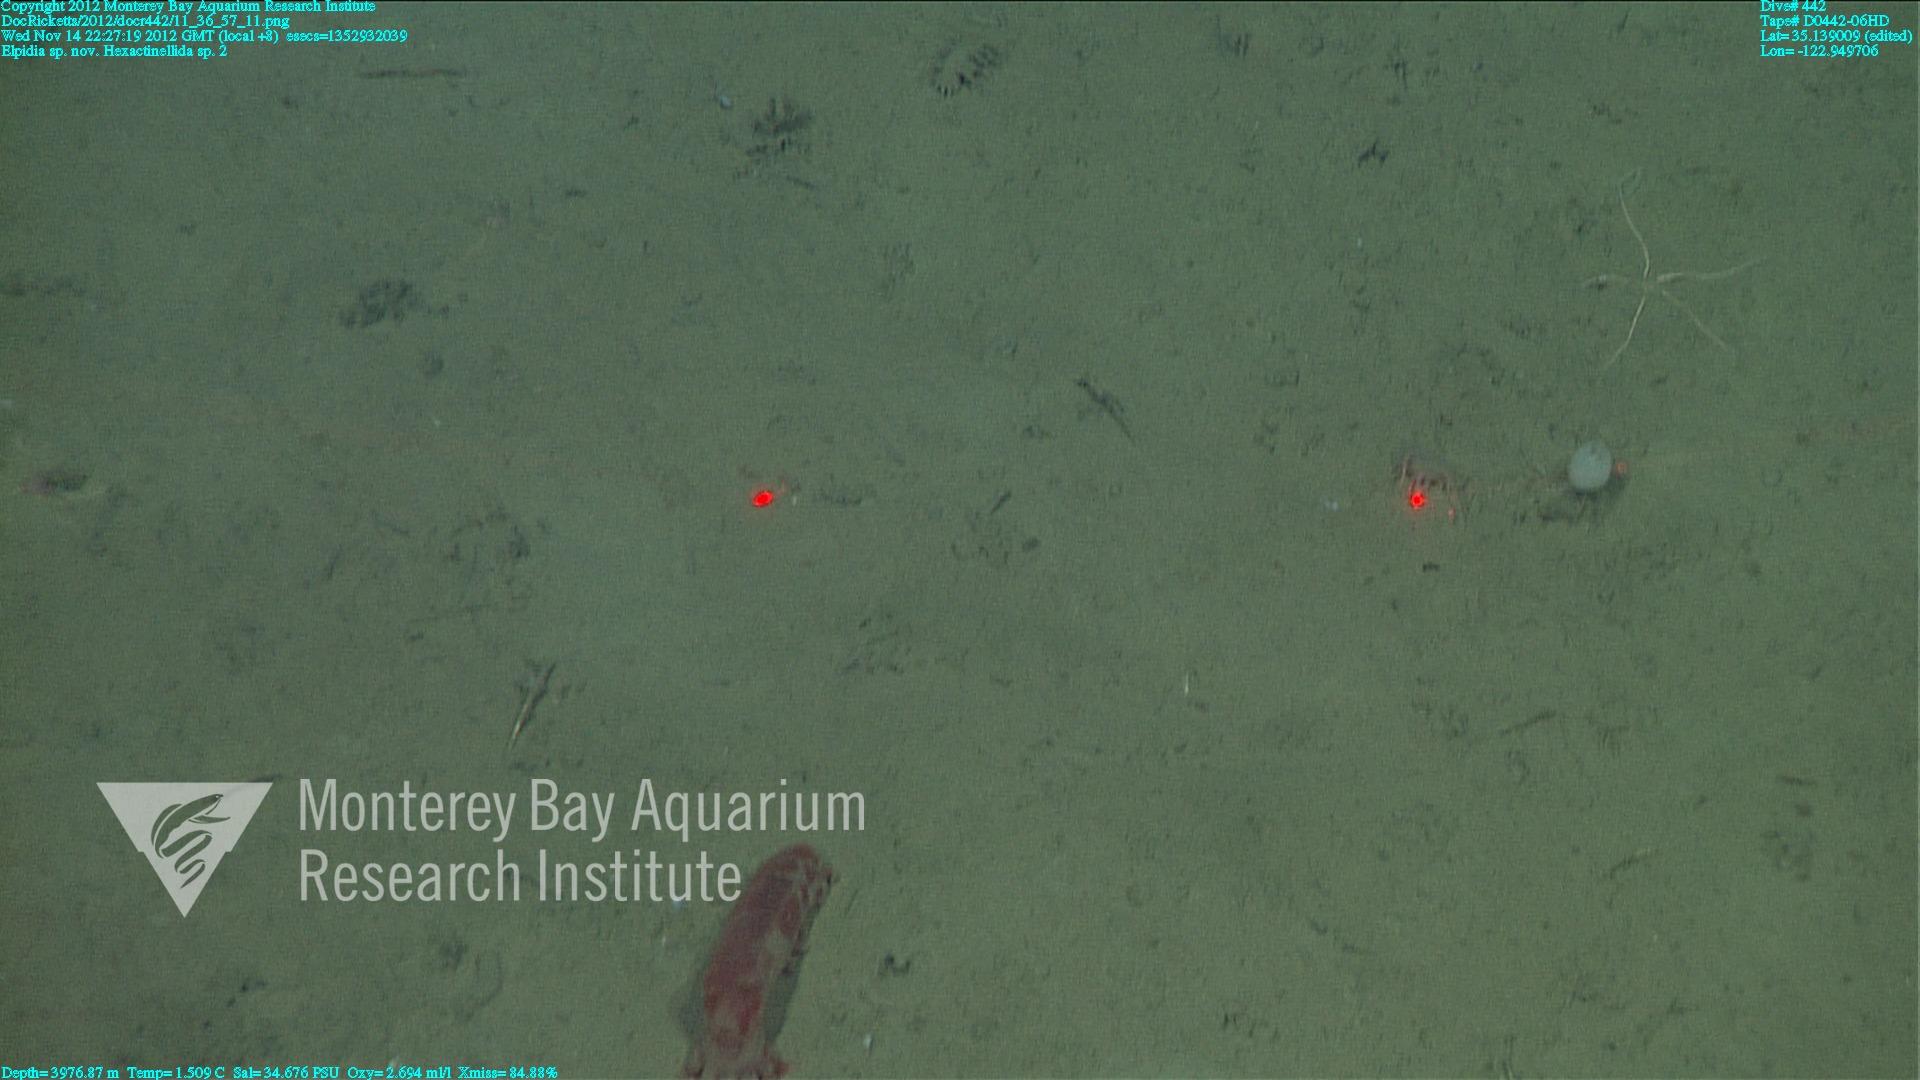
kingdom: Animalia
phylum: Porifera
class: Hexactinellida
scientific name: Hexactinellida
